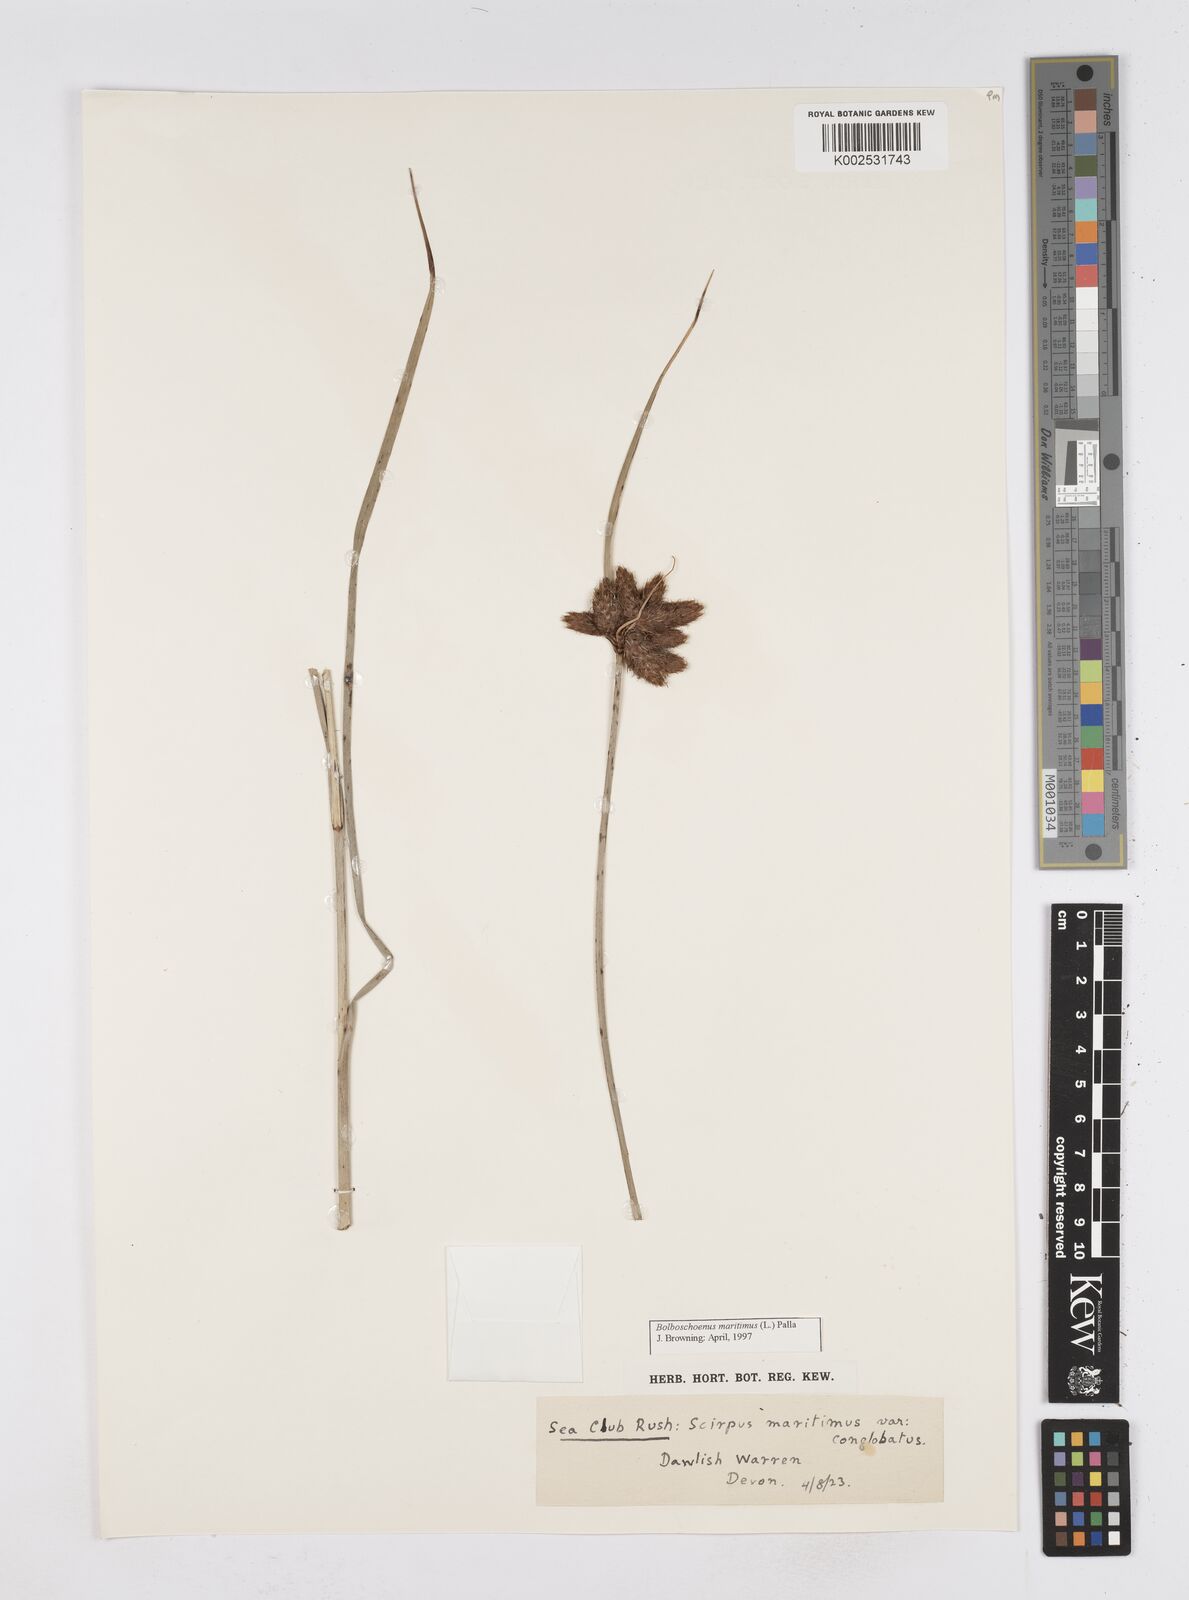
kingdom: Plantae
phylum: Tracheophyta
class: Liliopsida
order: Poales
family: Cyperaceae
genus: Bolboschoenus
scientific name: Bolboschoenus maritimus
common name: Sea club-rush
